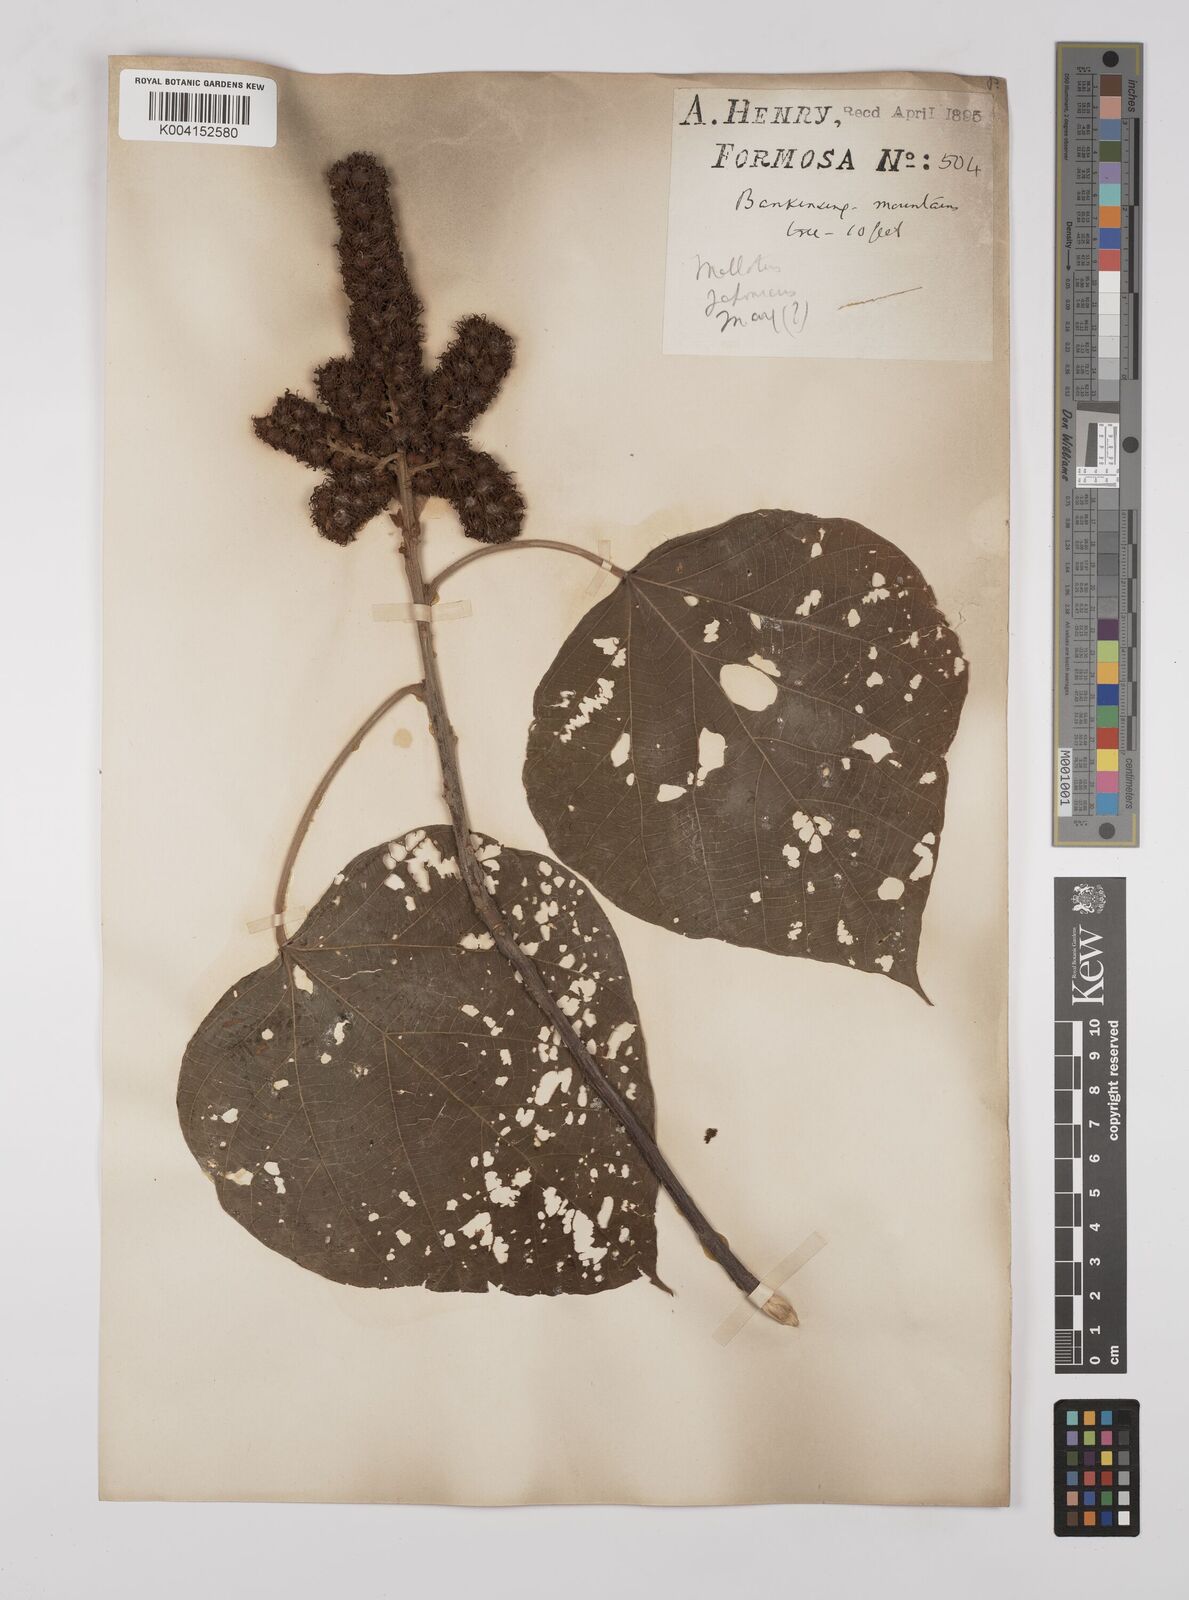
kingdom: Plantae
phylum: Tracheophyta
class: Magnoliopsida
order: Malpighiales
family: Euphorbiaceae
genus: Mallotus
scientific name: Mallotus japonicus
